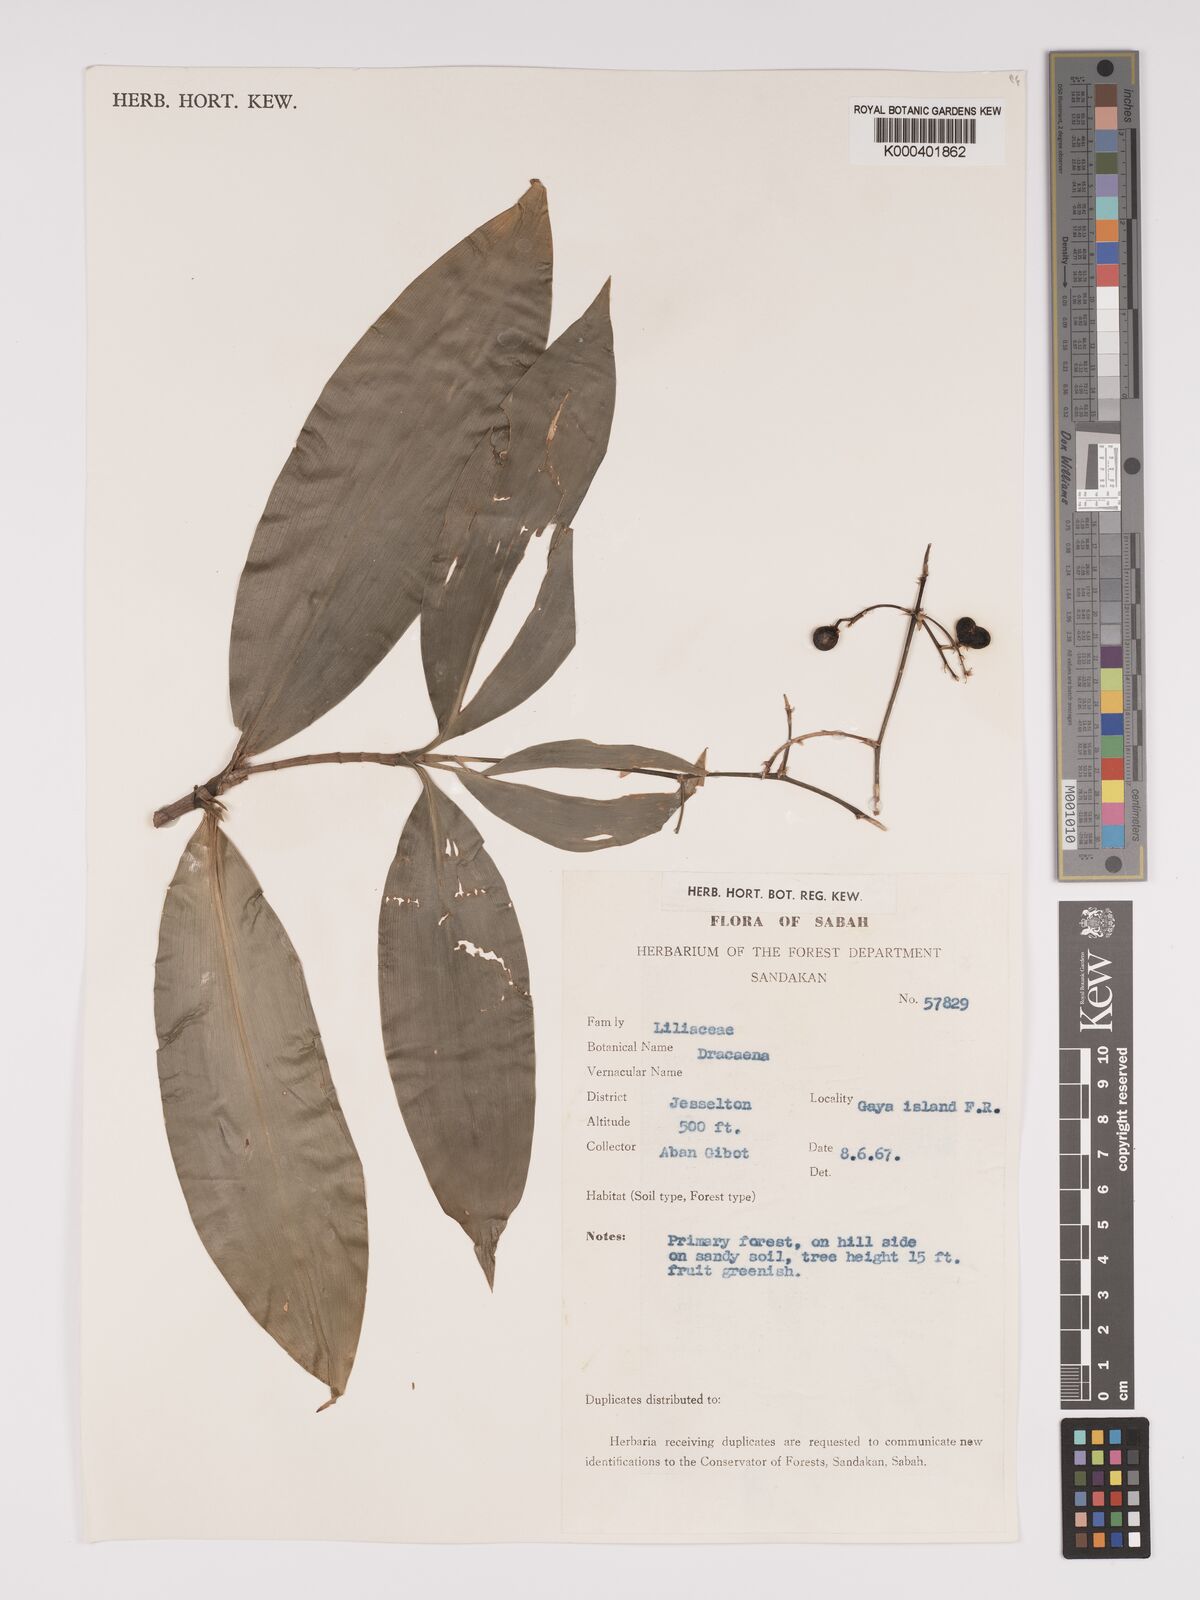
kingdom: Plantae
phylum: Tracheophyta
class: Liliopsida
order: Asparagales
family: Asparagaceae
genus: Dracaena
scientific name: Dracaena
